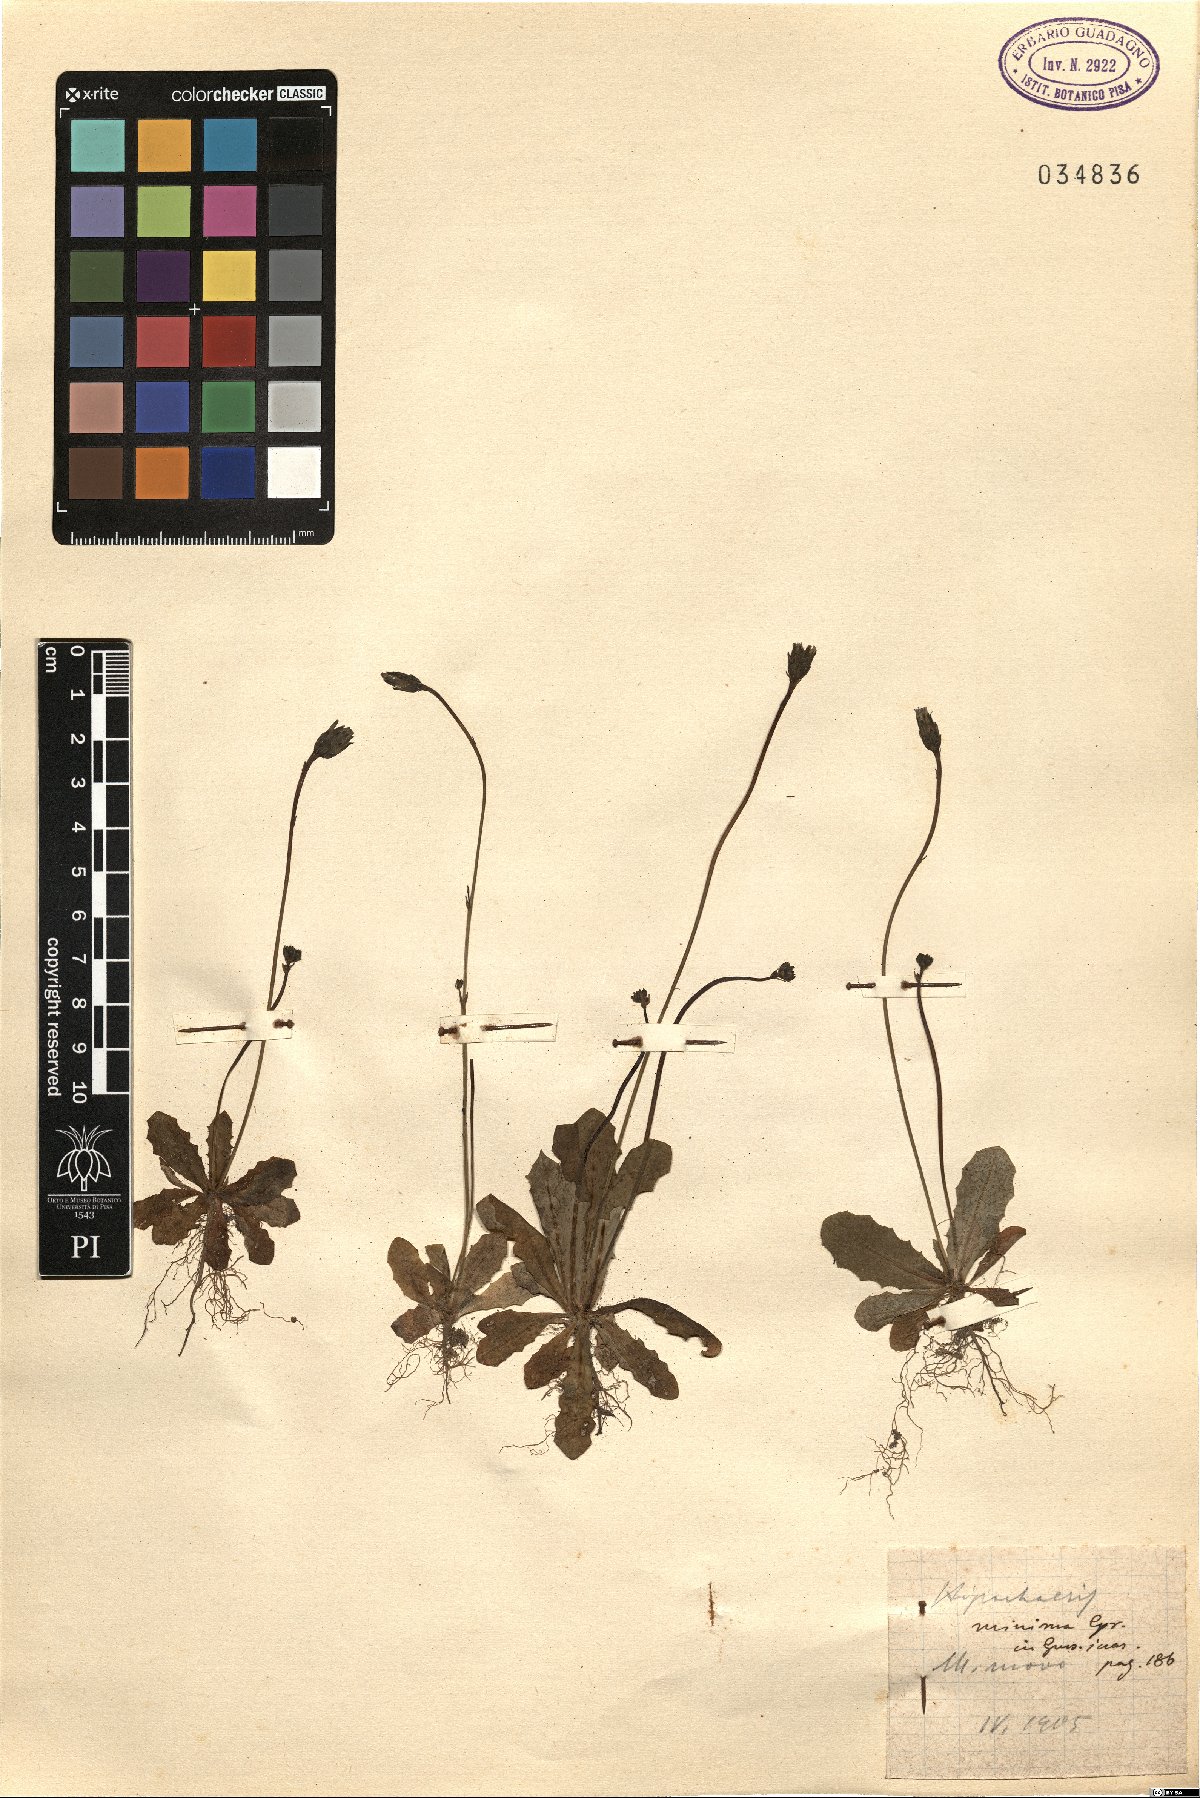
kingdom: Plantae
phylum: Tracheophyta
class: Magnoliopsida
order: Asterales
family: Asteraceae
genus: Hypochaeris
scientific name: Hypochaeris arachnoides
